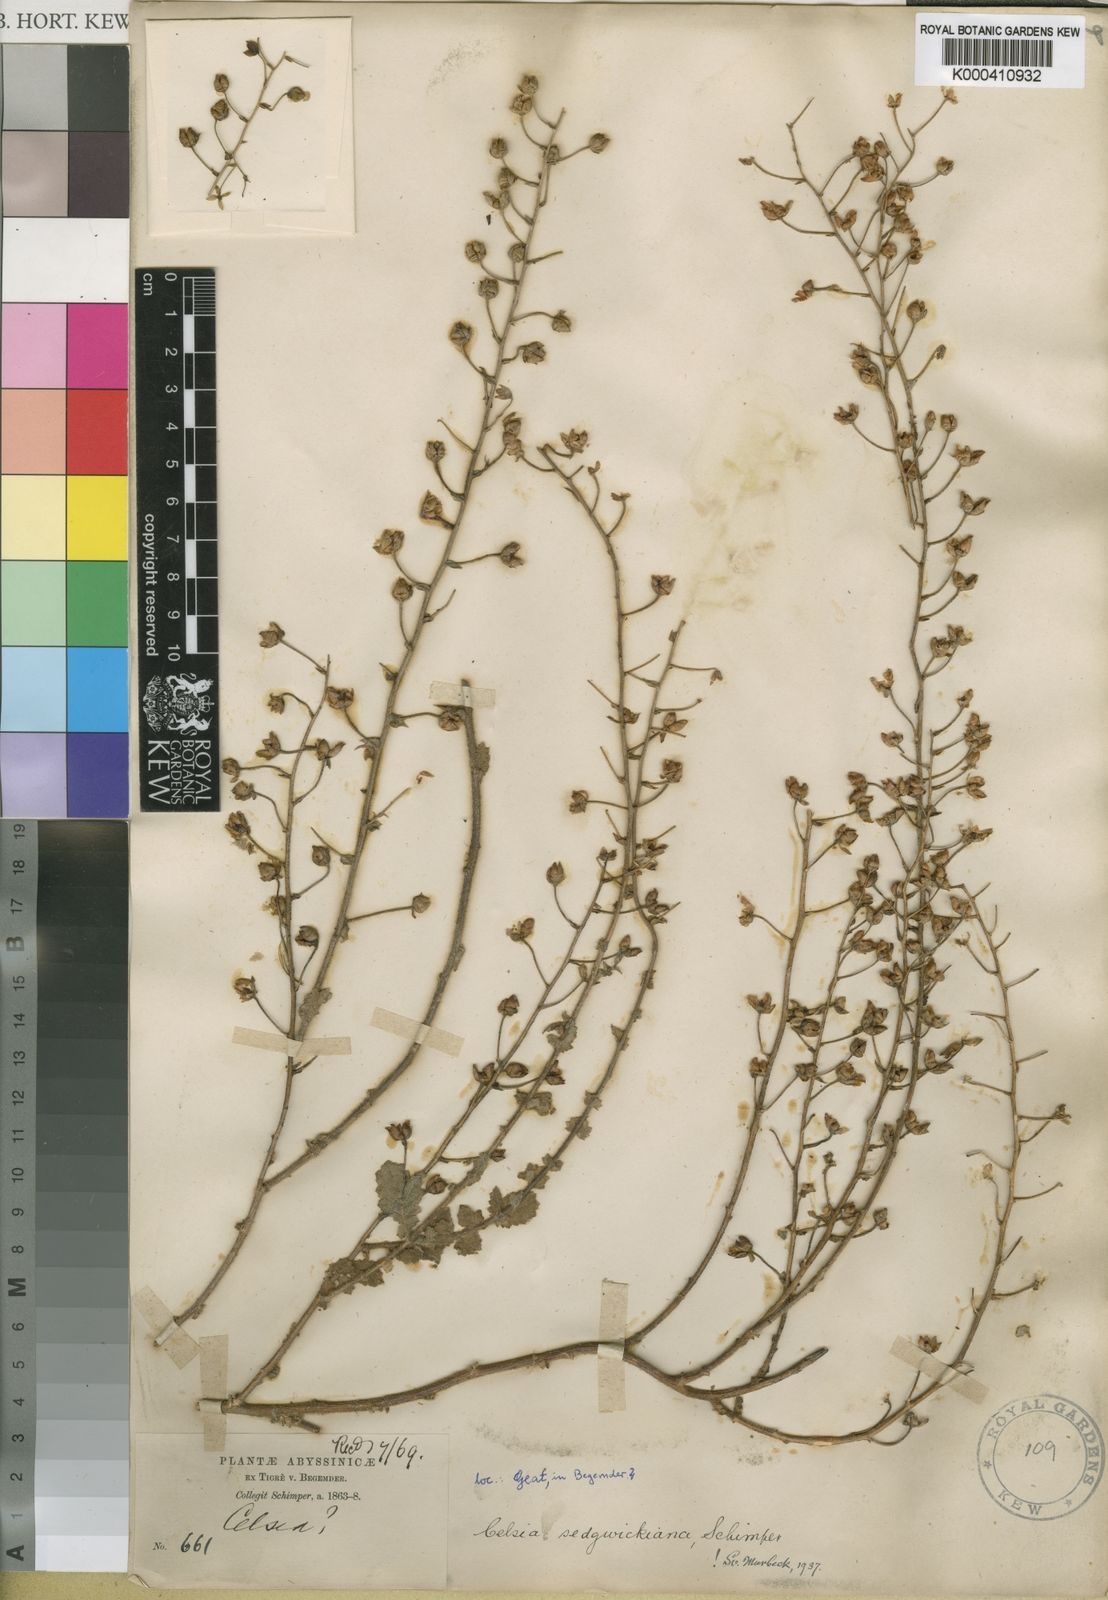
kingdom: Plantae
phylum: Tracheophyta
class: Magnoliopsida
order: Lamiales
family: Scrophulariaceae
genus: Verbascum
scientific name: Verbascum sedgwickianum
